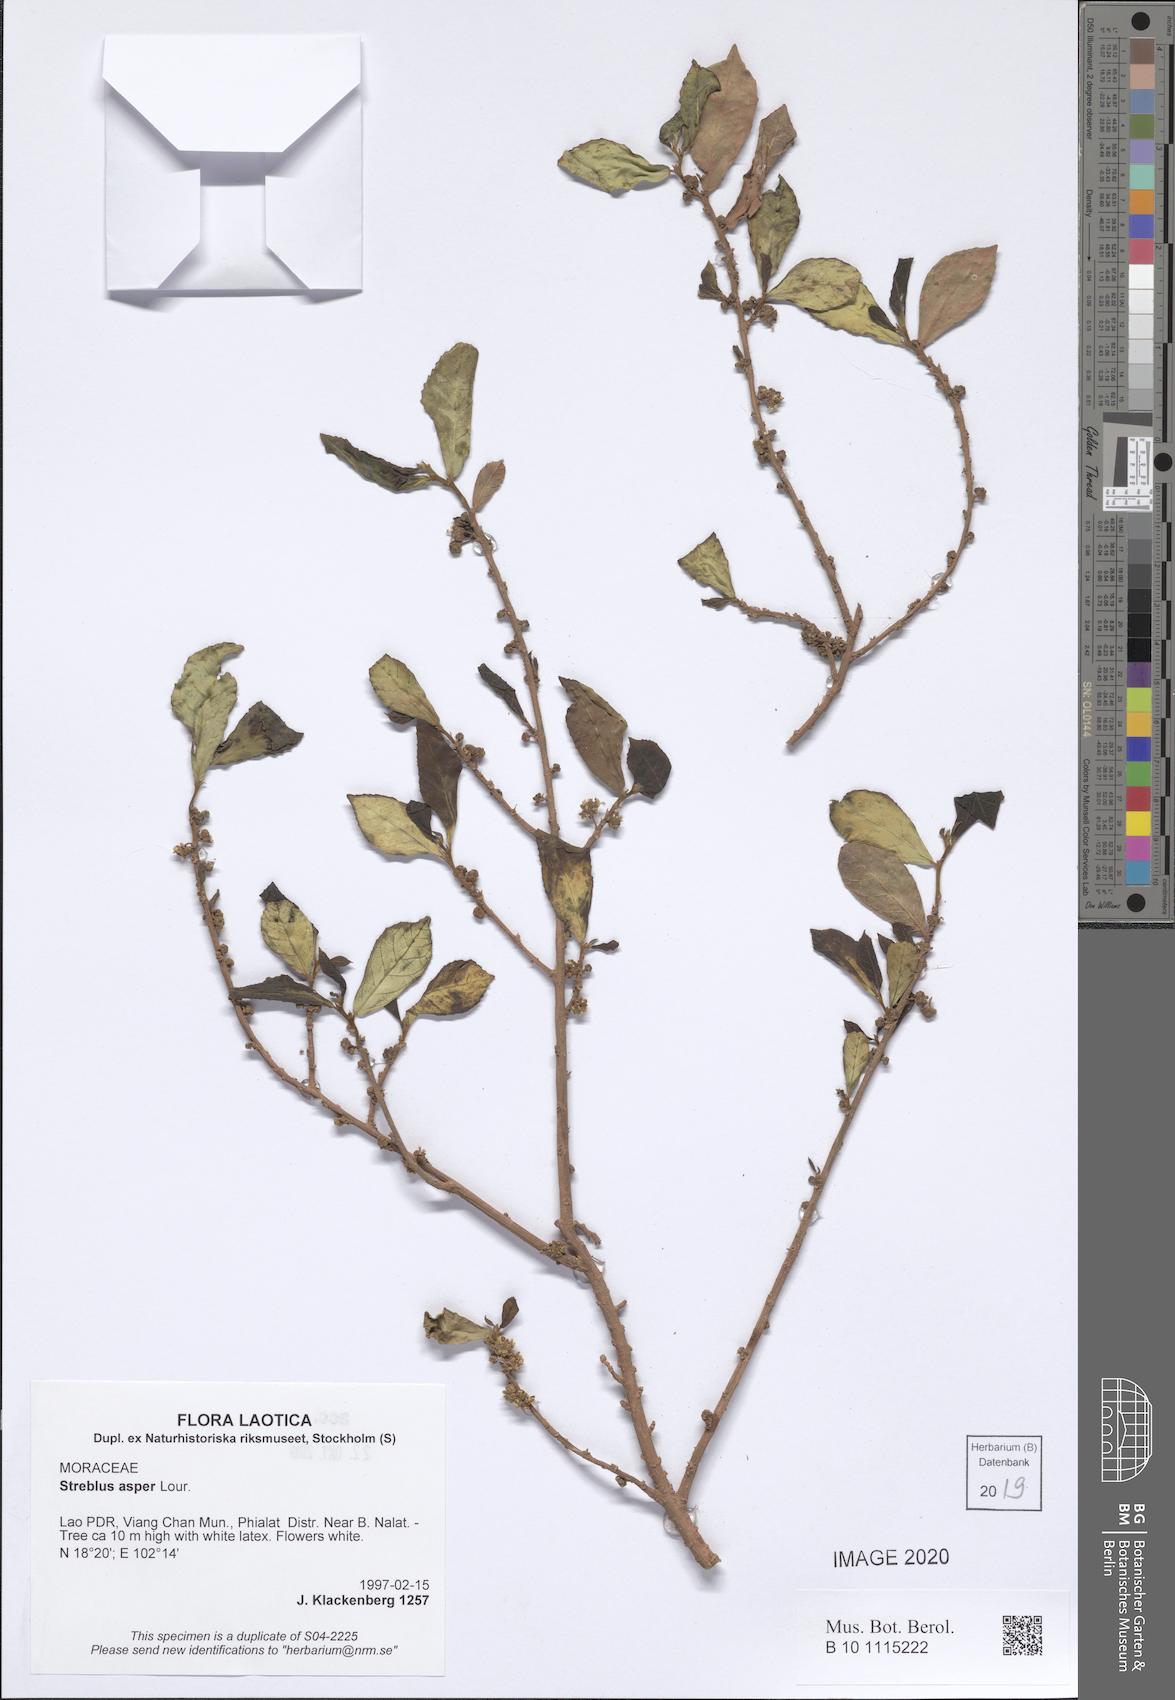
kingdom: Plantae
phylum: Tracheophyta
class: Magnoliopsida
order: Rosales
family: Moraceae
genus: Streblus
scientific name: Streblus asper
